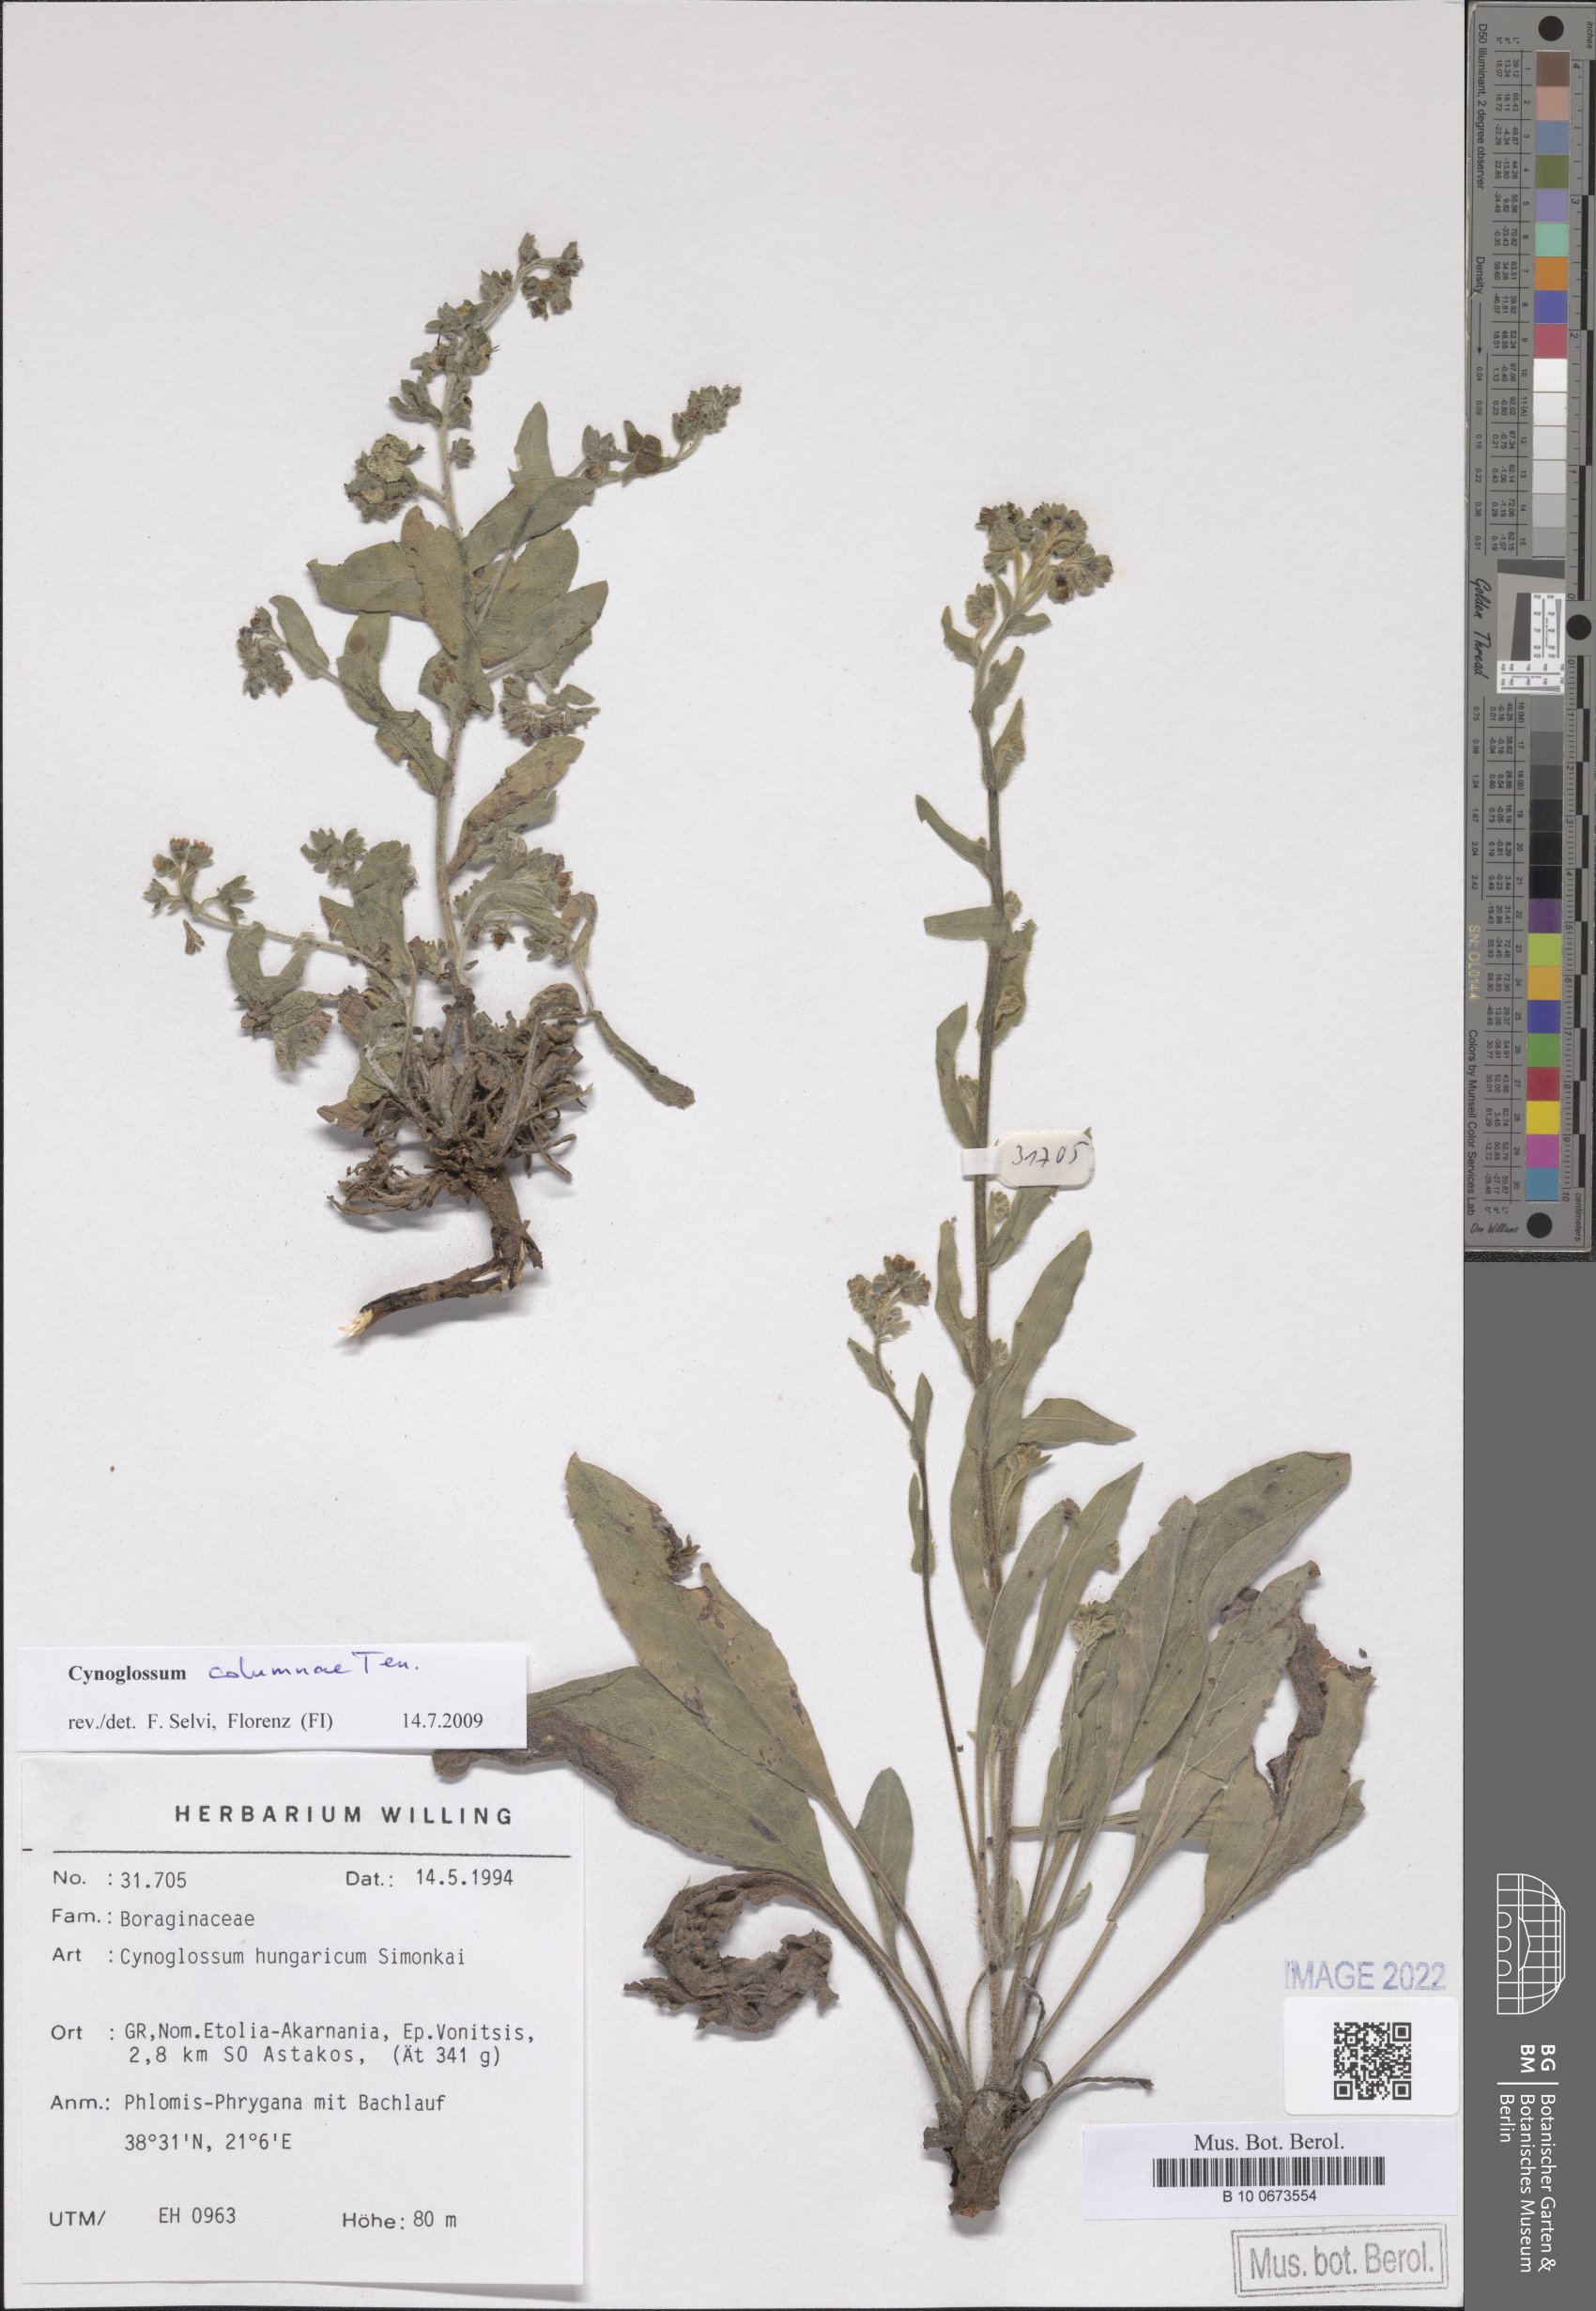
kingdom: Plantae
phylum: Tracheophyta
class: Magnoliopsida
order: Boraginales
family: Boraginaceae
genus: Rindera
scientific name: Rindera columnae
